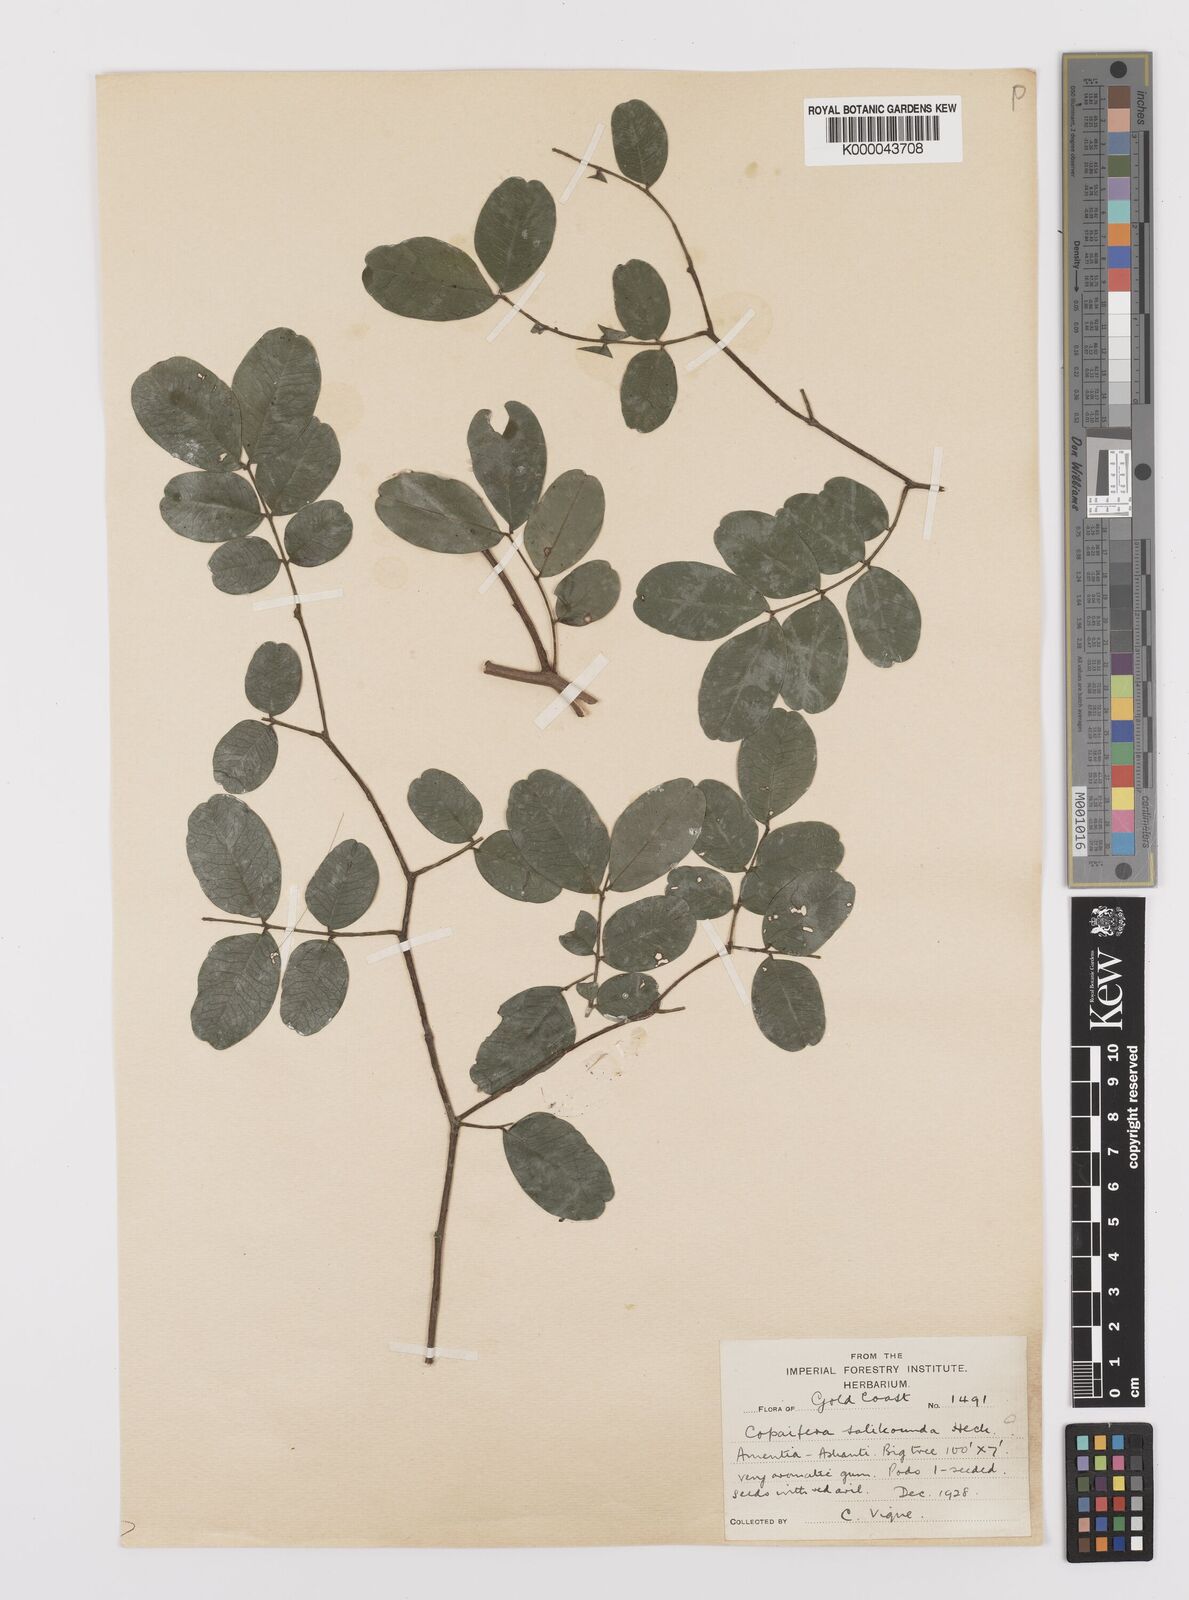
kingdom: Plantae
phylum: Tracheophyta
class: Magnoliopsida
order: Fabales
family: Fabaceae
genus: Copaifera
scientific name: Copaifera salikounda
